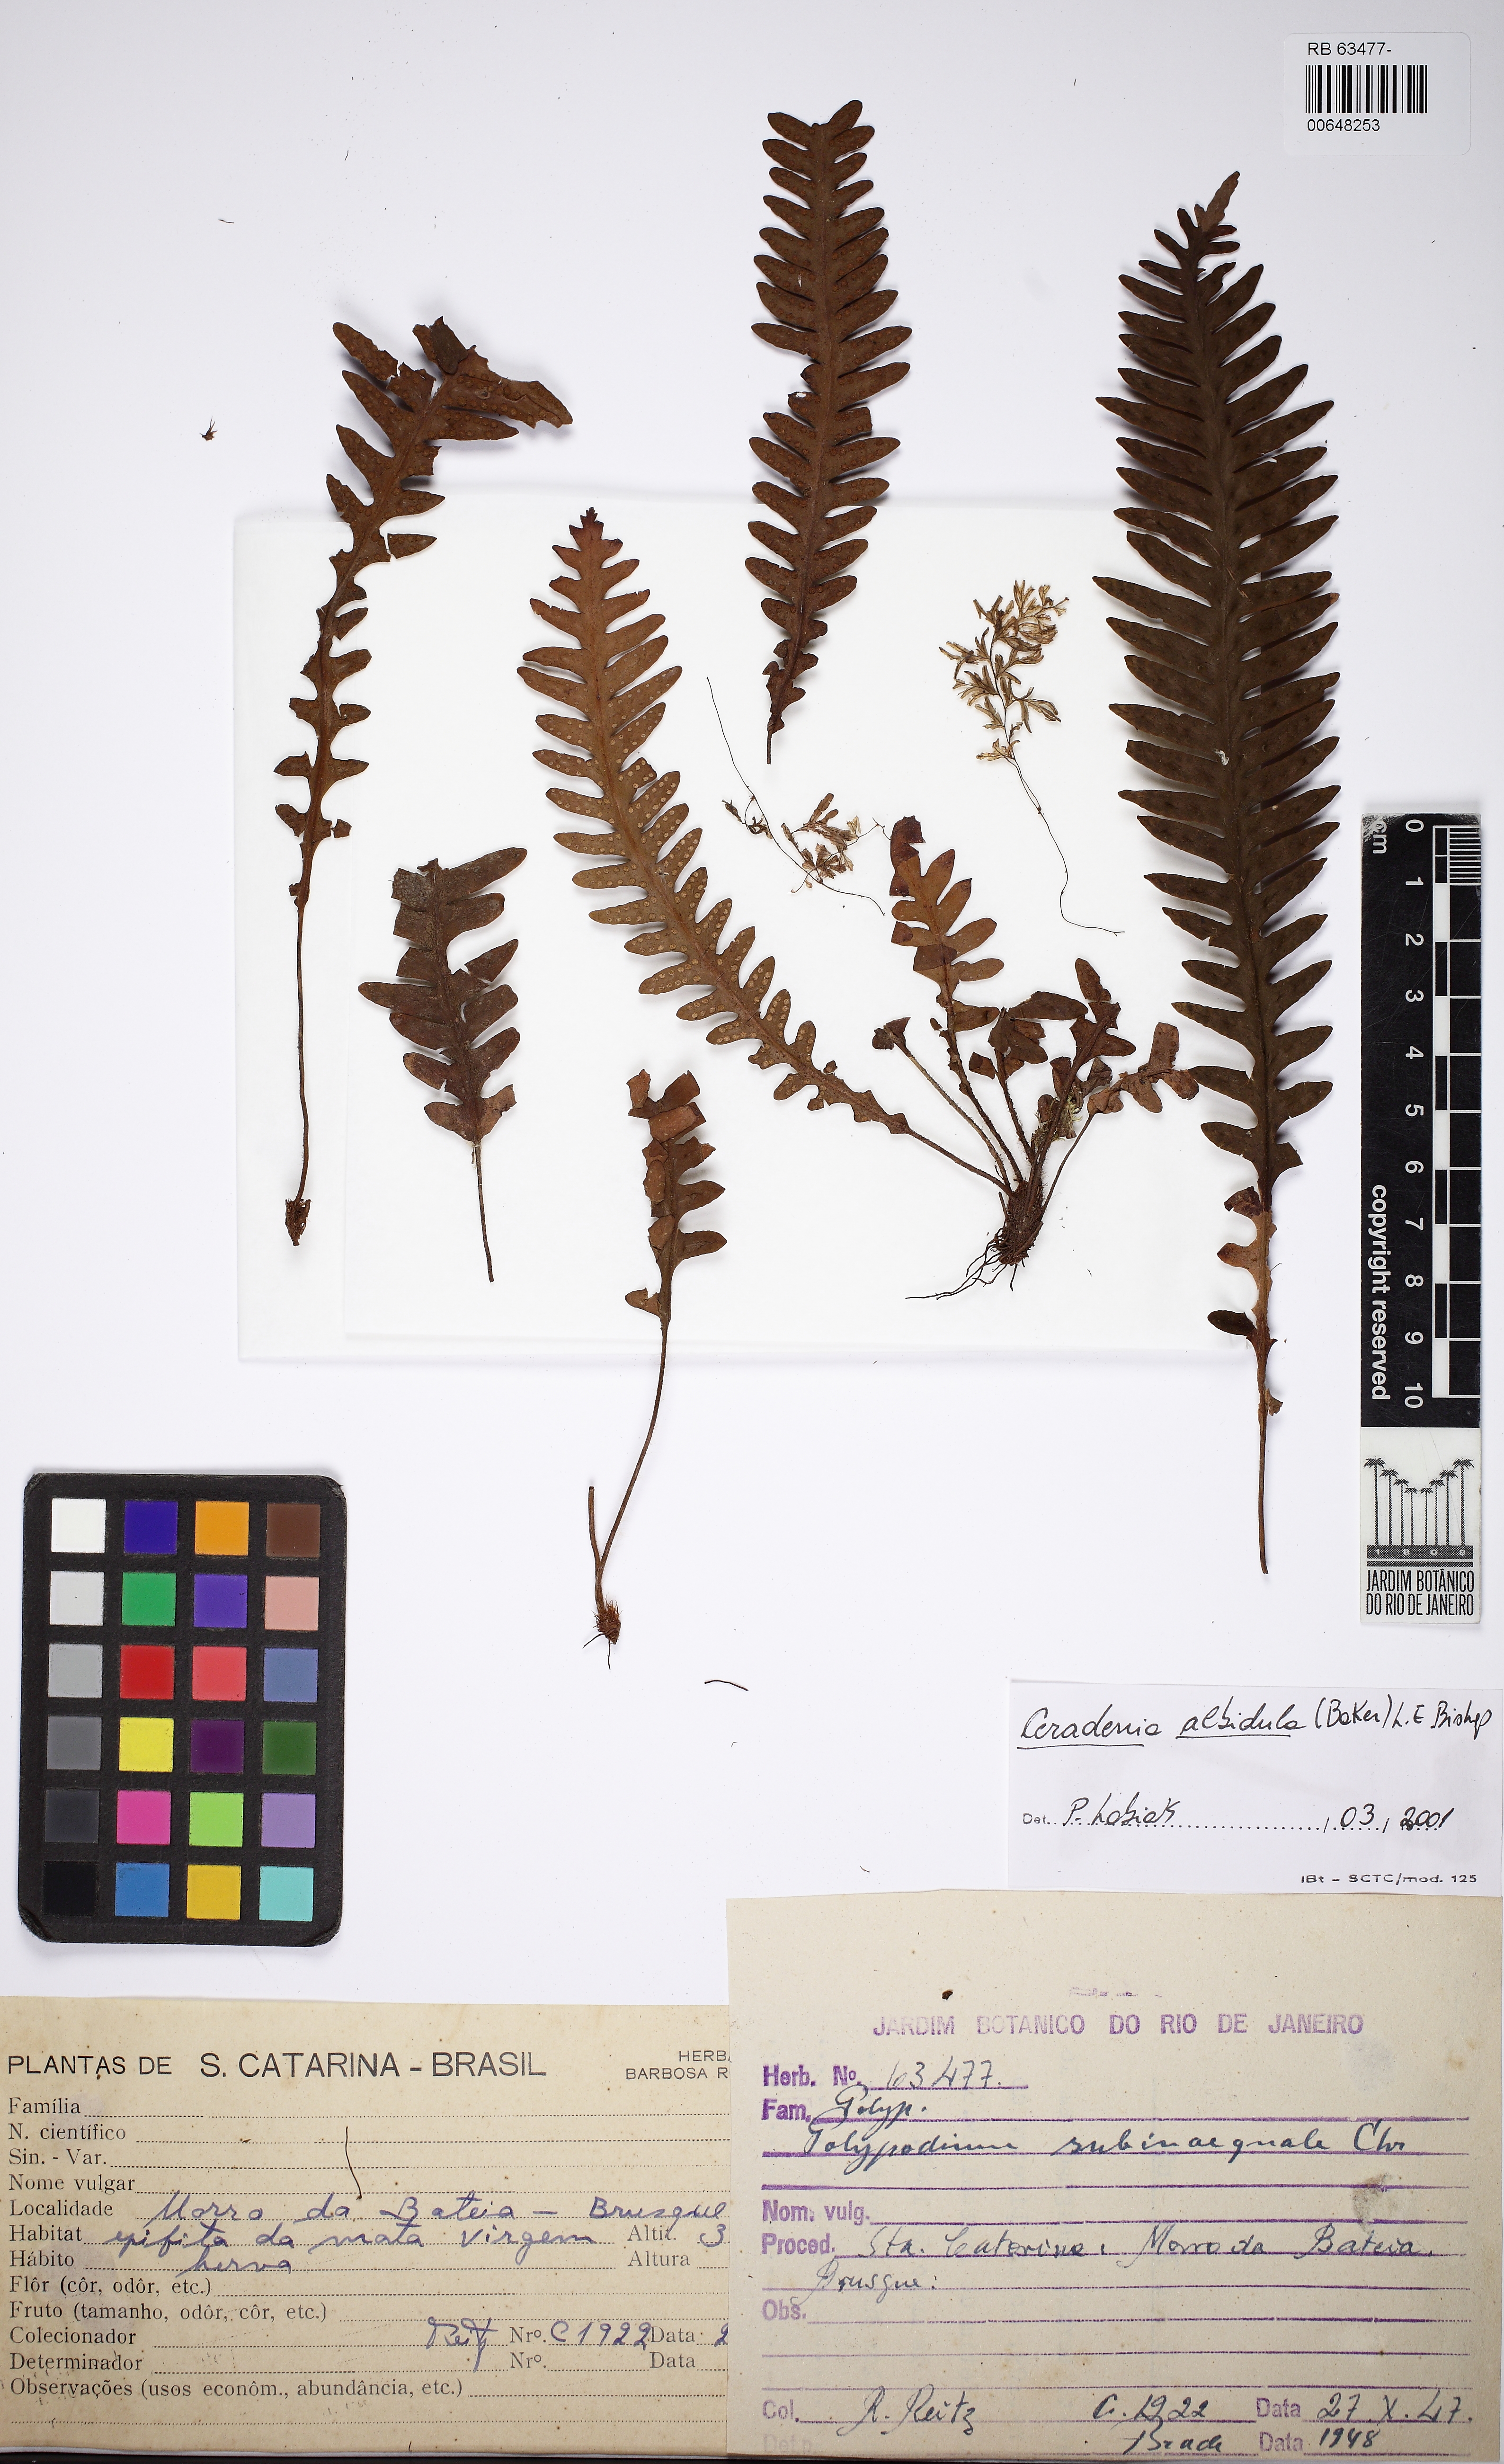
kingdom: Plantae
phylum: Tracheophyta
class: Polypodiopsida
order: Polypodiales
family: Polypodiaceae
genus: Ceradenia
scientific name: Ceradenia albidula
